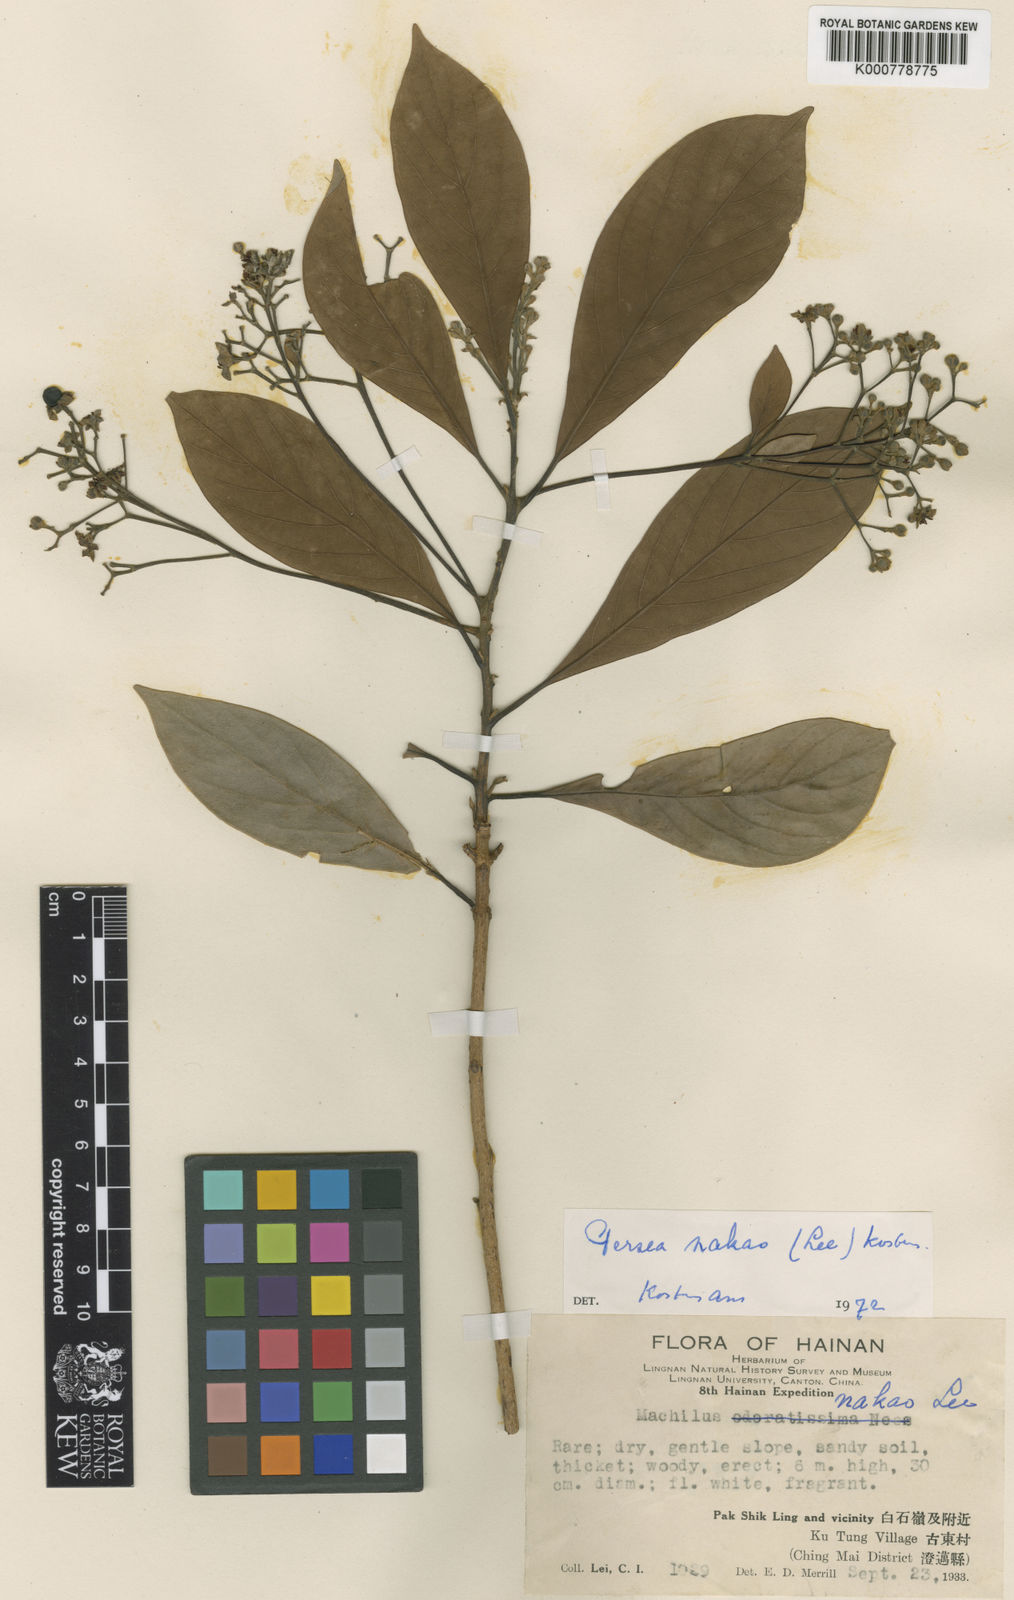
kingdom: Plantae
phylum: Tracheophyta
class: Magnoliopsida
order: Laurales
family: Lauraceae
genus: Persea
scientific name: Persea
